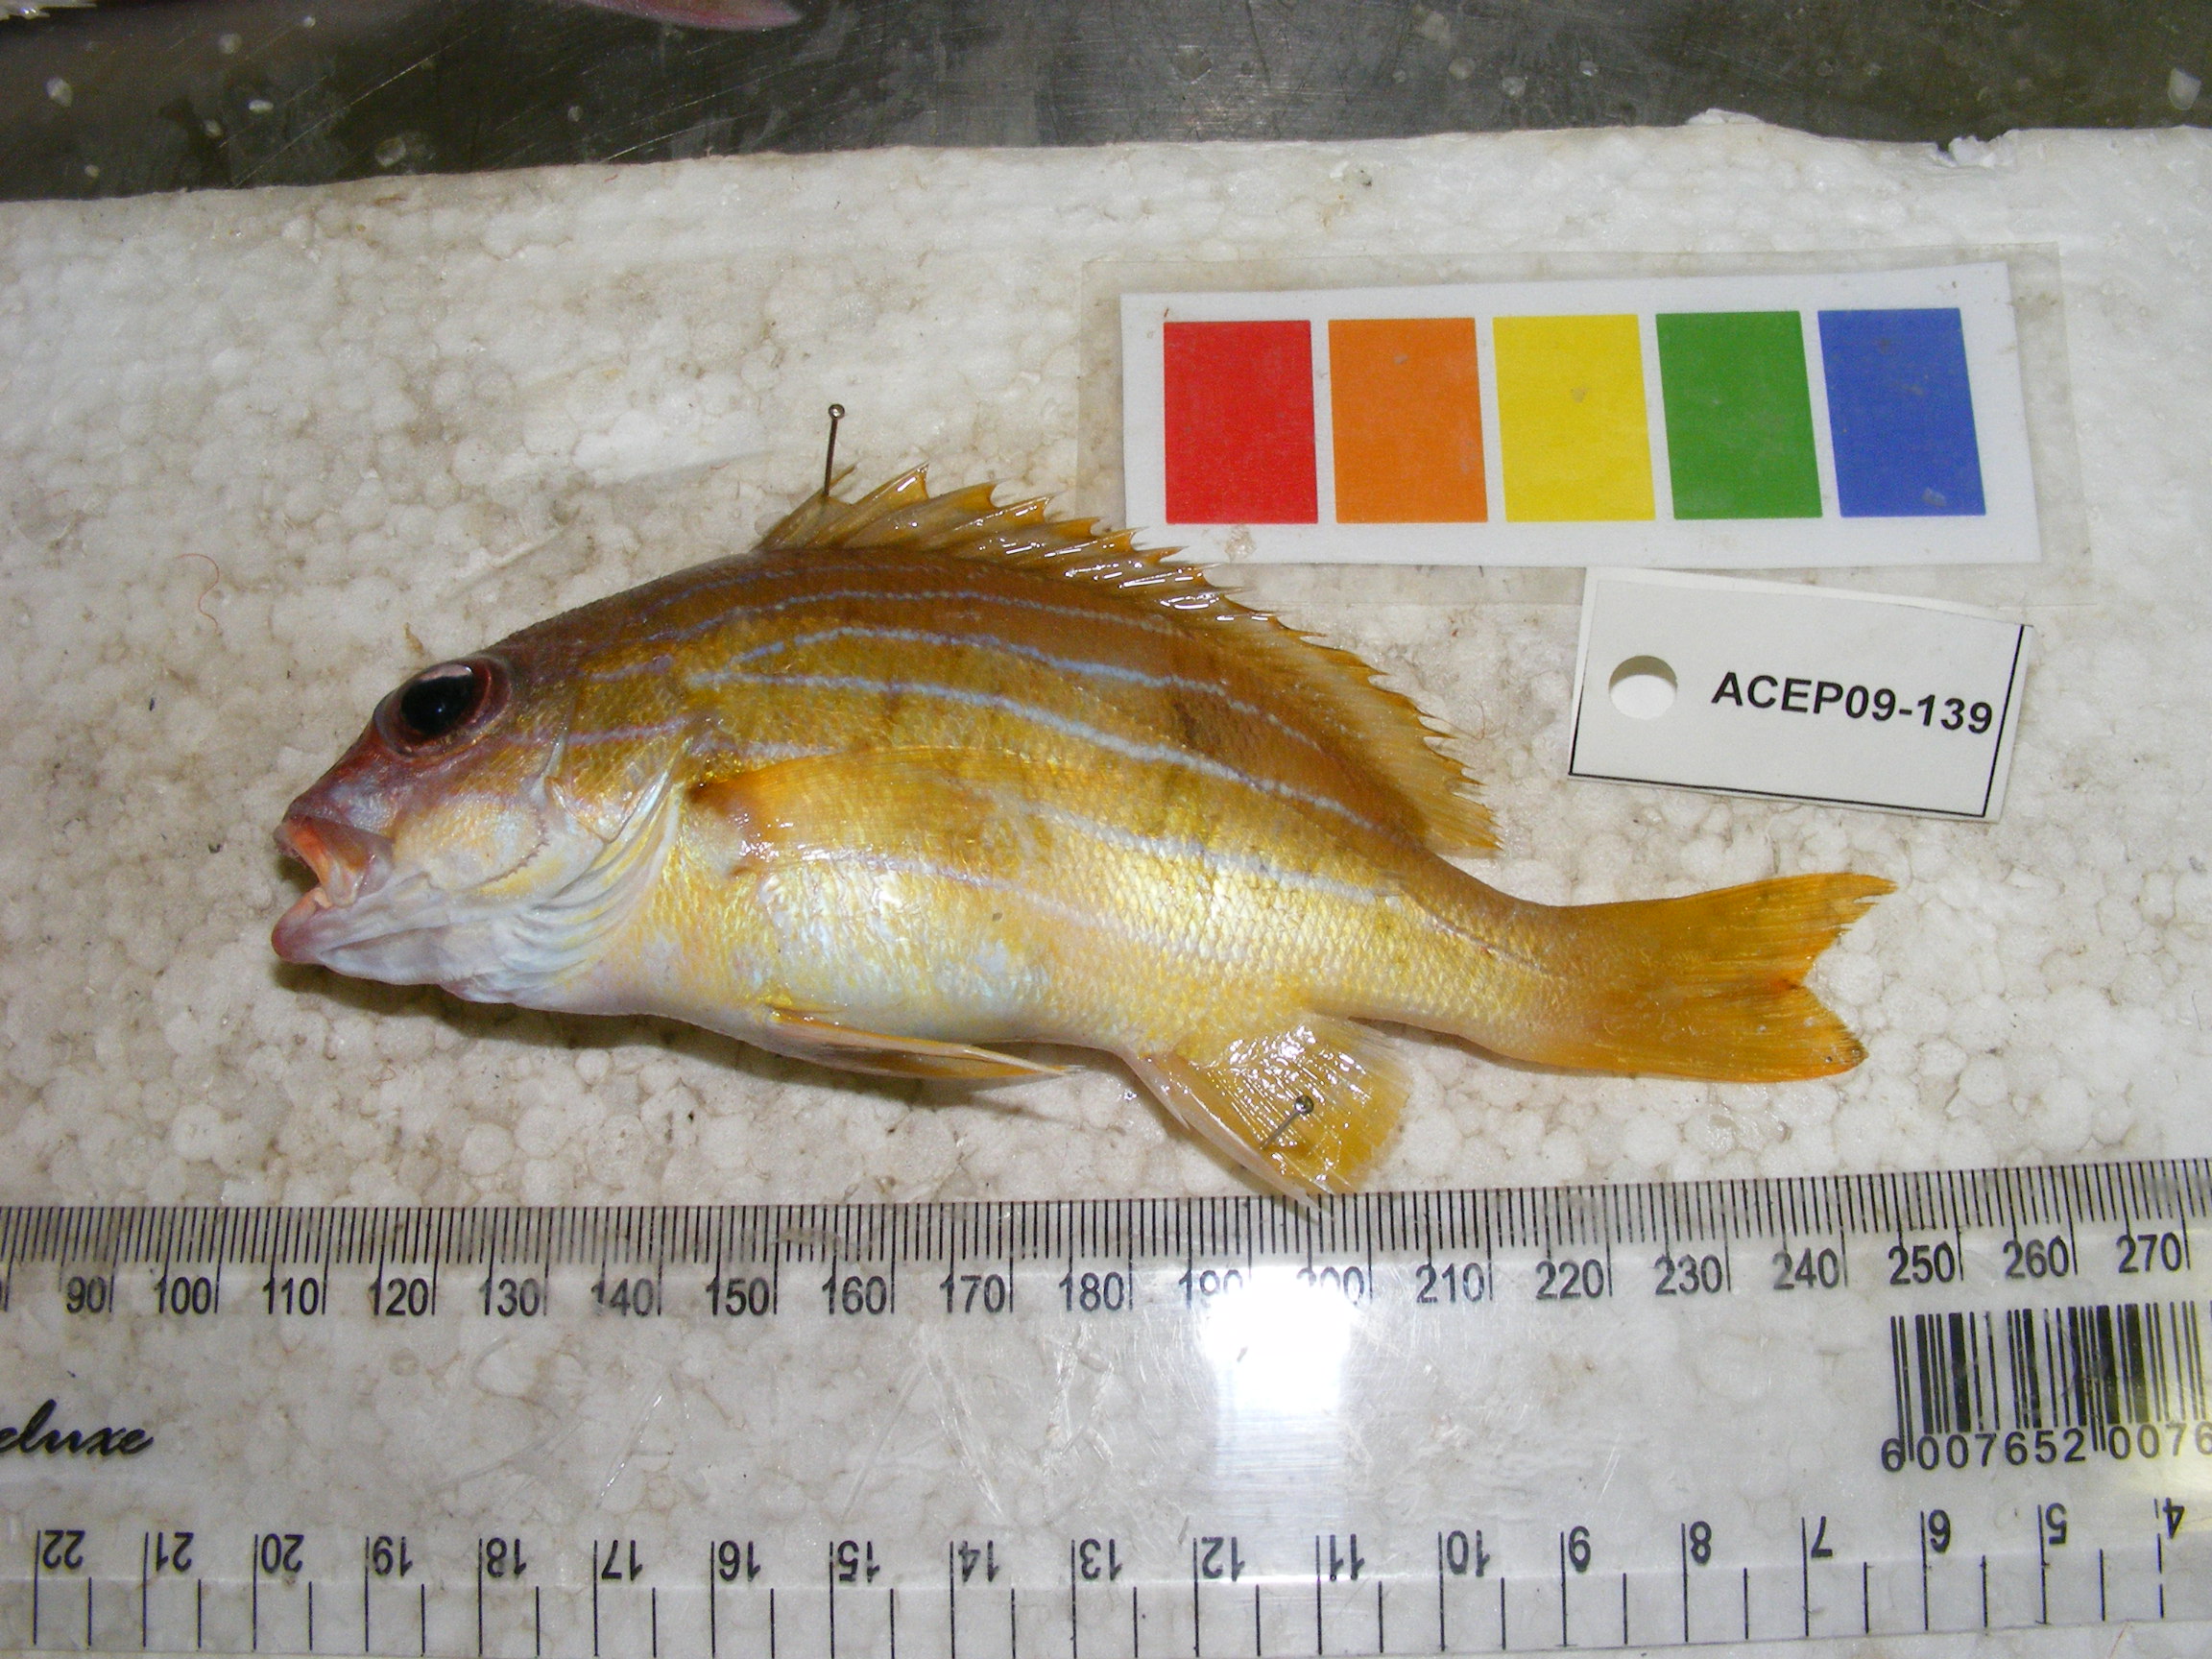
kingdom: Animalia
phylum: Chordata
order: Perciformes
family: Lutjanidae
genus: Lutjanus
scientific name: Lutjanus notatus
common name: Bluestriped snapper
